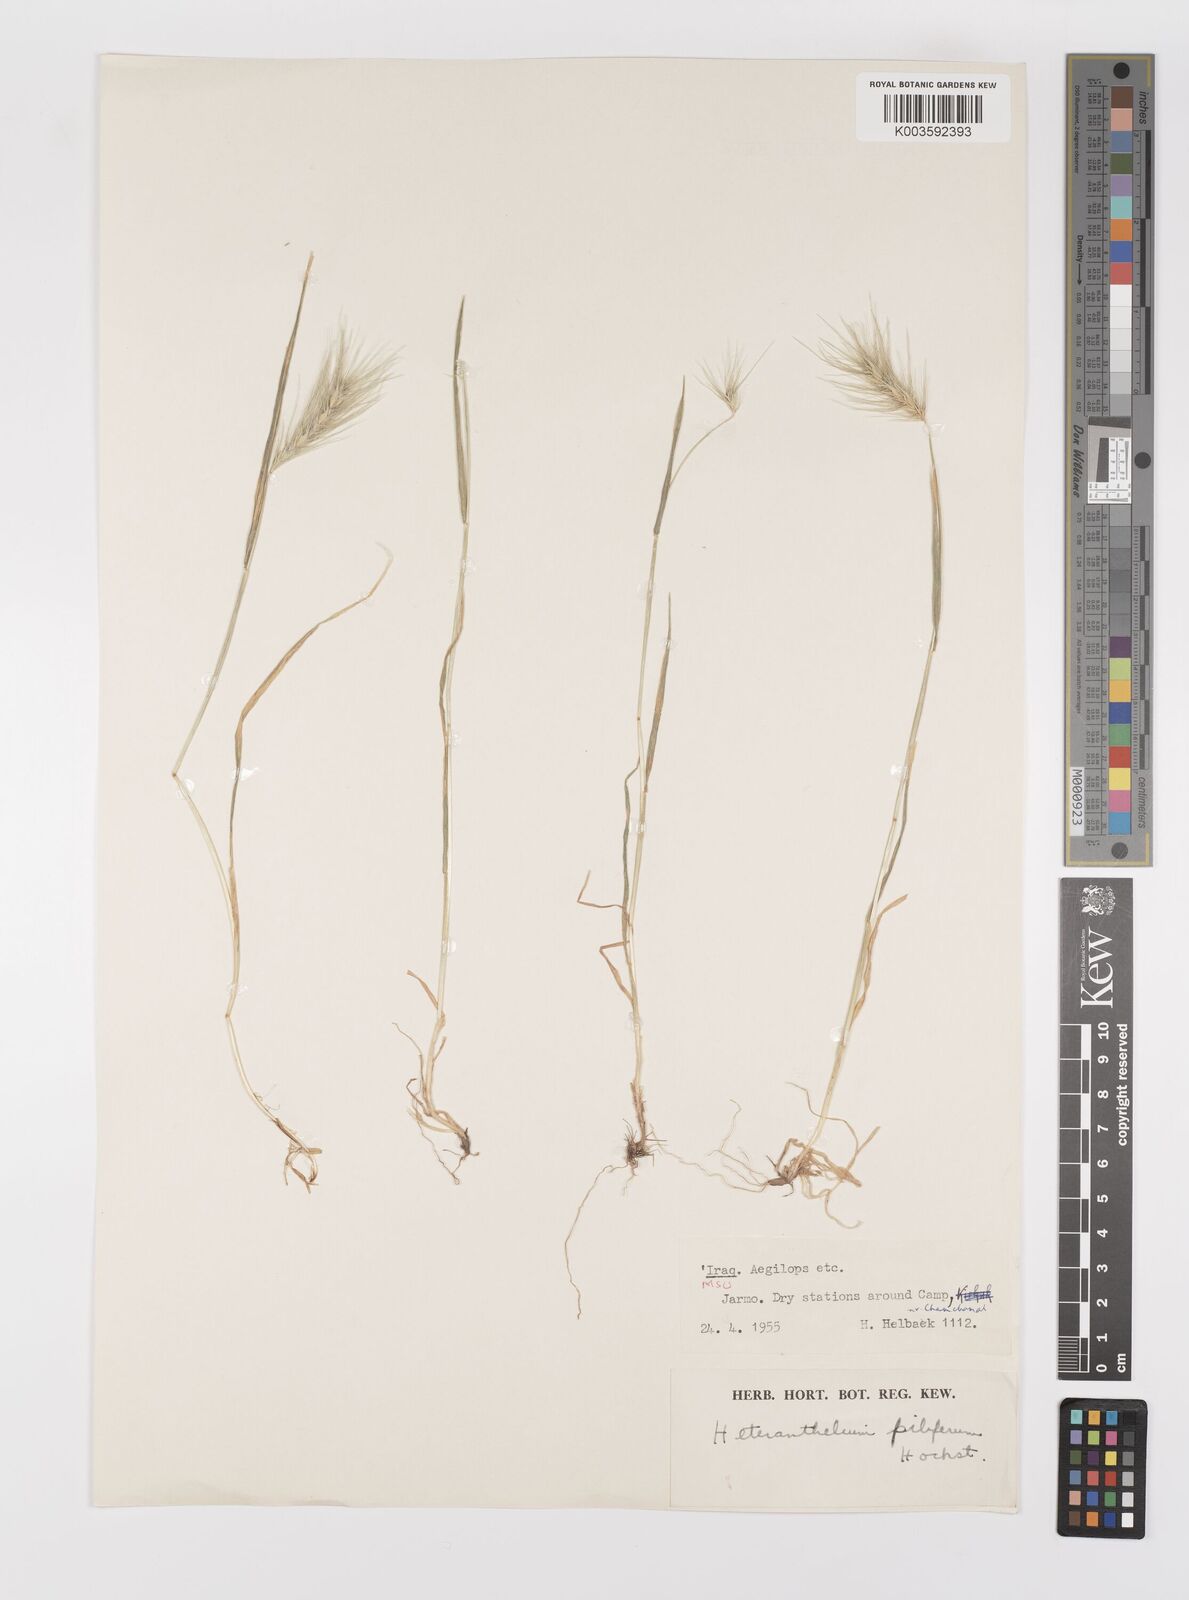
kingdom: Plantae
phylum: Tracheophyta
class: Liliopsida
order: Poales
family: Poaceae
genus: Heteranthelium
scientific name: Heteranthelium piliferum
